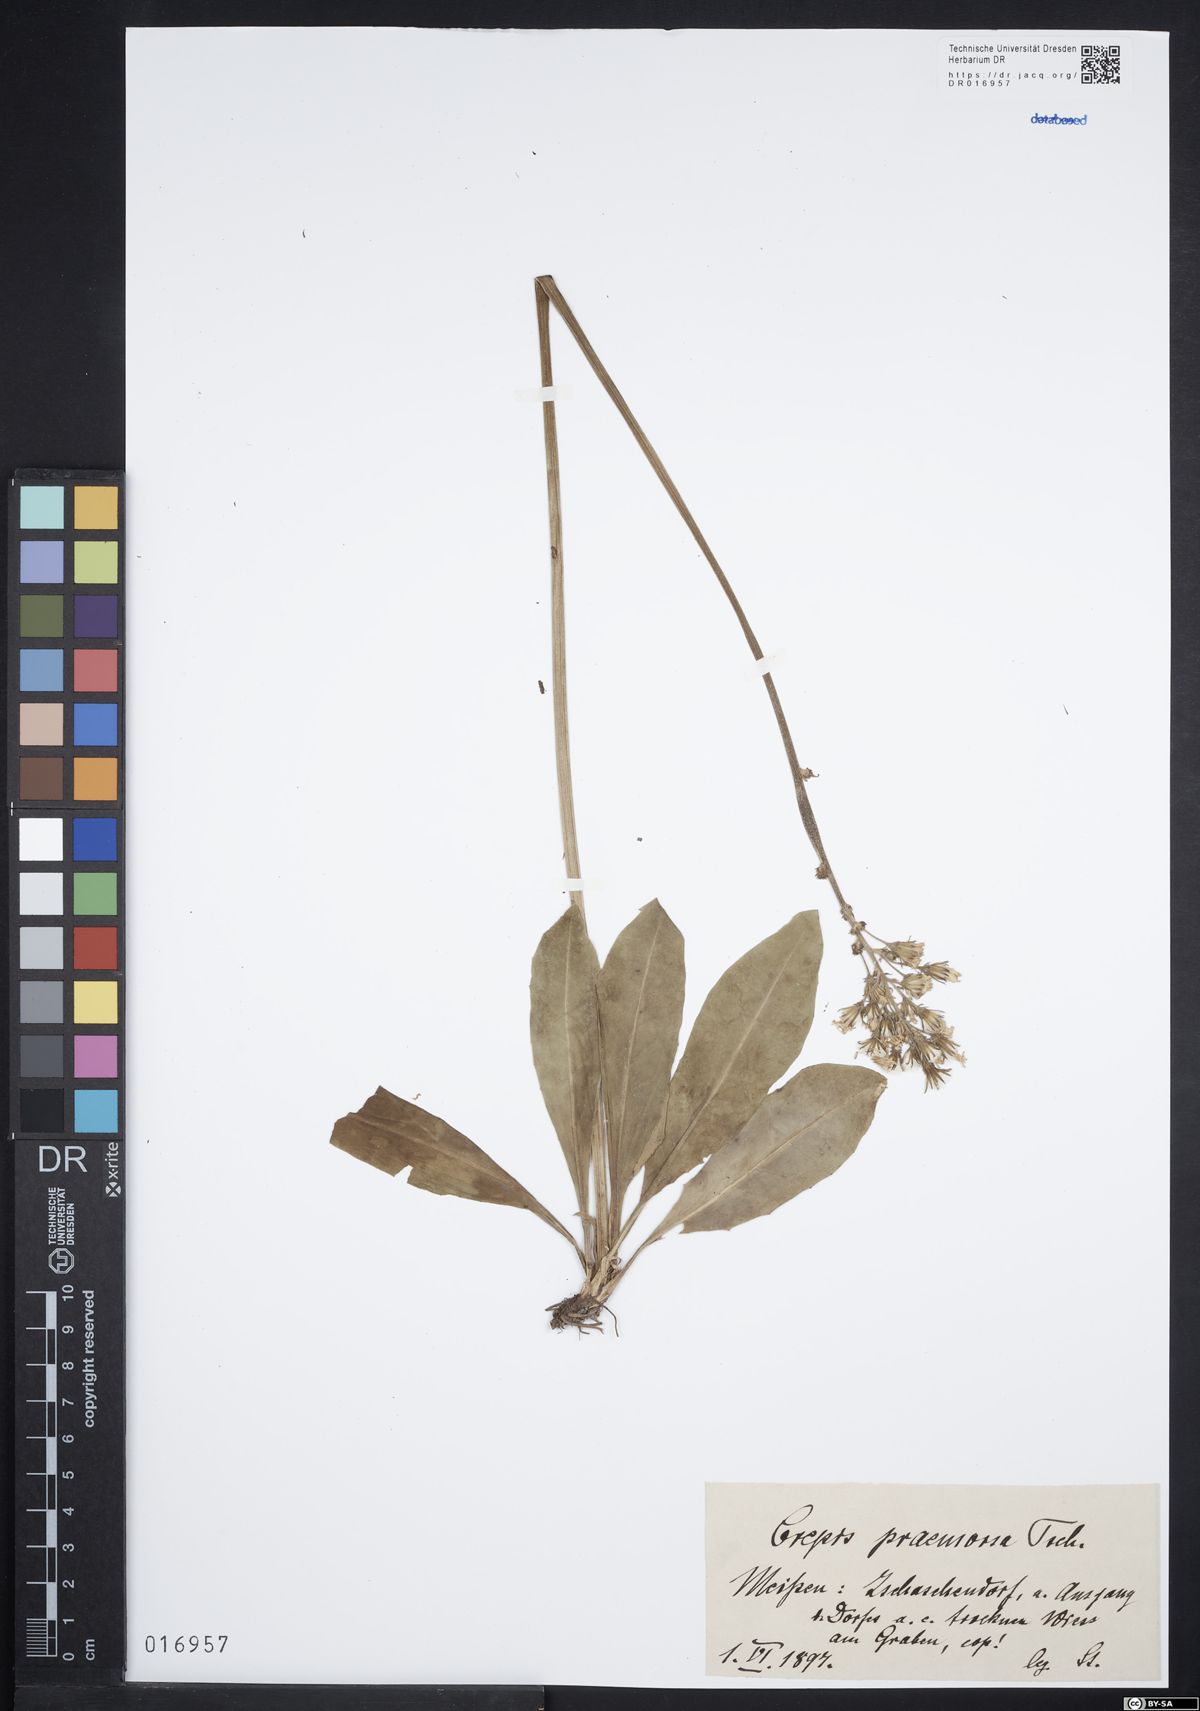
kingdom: Plantae
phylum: Tracheophyta
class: Magnoliopsida
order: Asterales
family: Asteraceae
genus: Crepis
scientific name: Crepis praemorsa
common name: Leafless hawk's-beard
